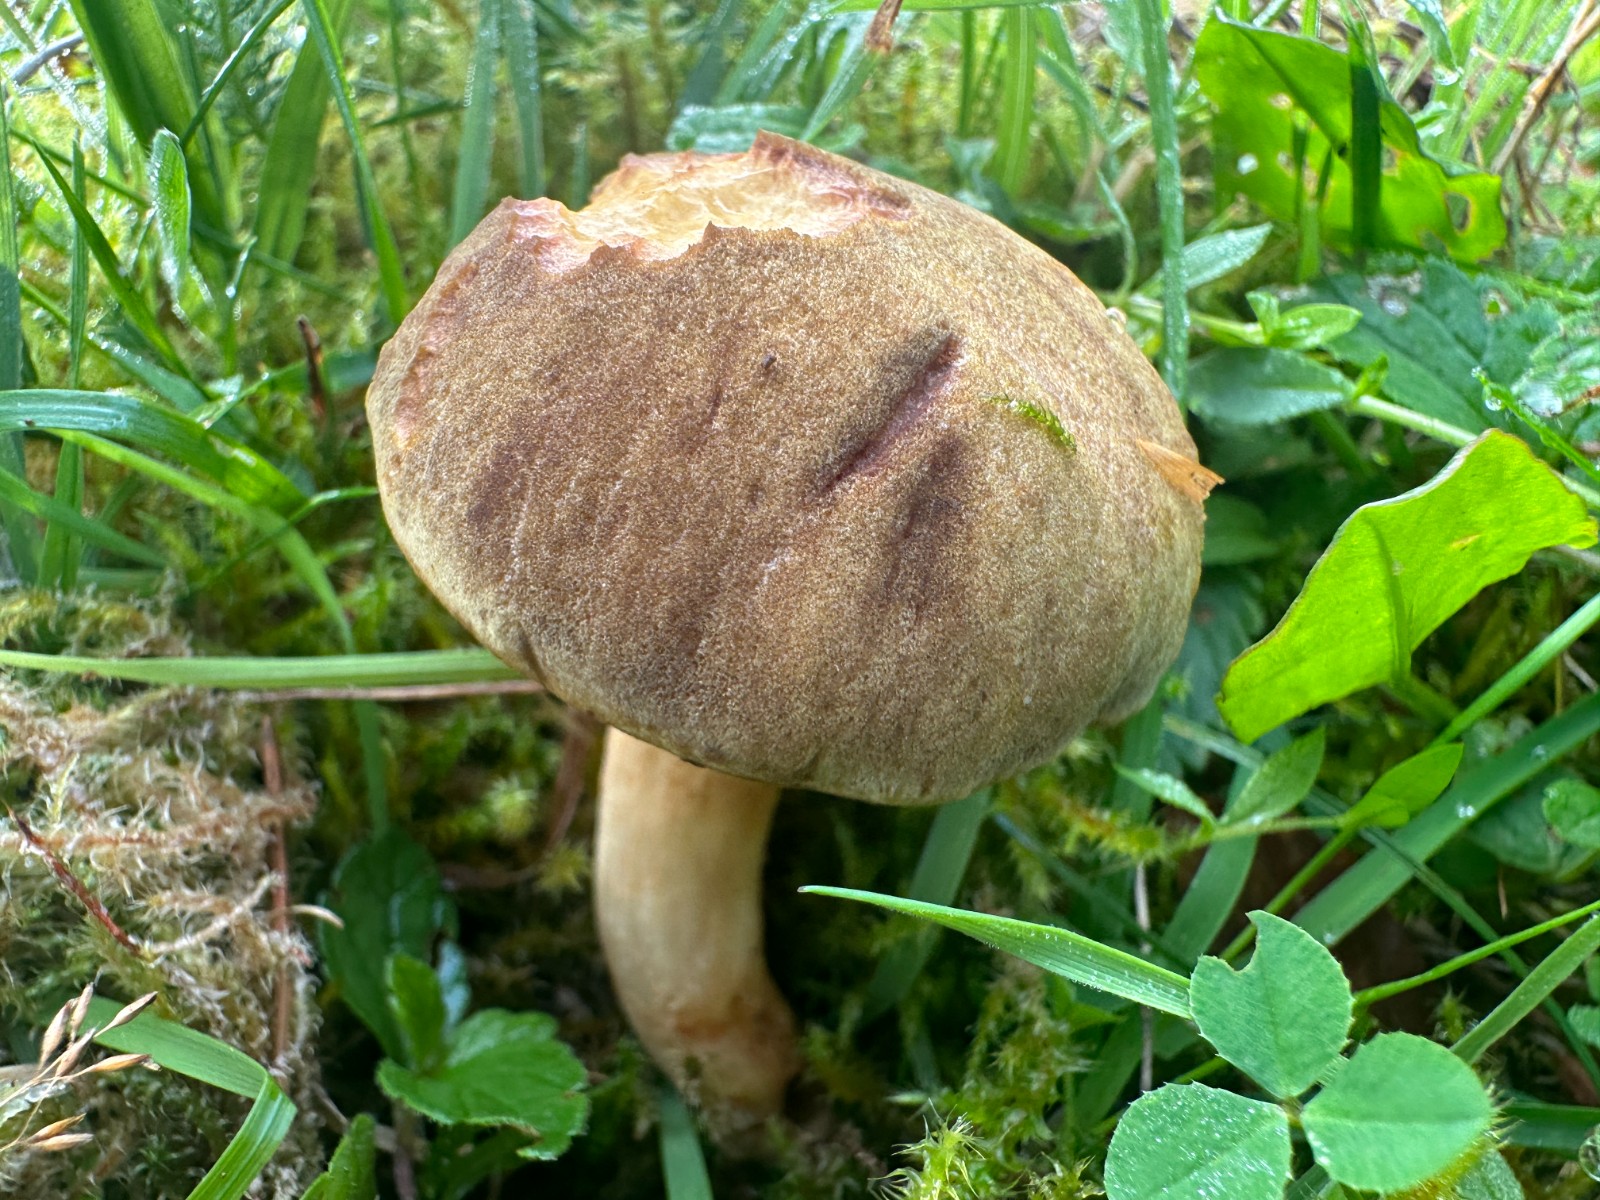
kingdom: Fungi
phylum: Basidiomycota
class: Agaricomycetes
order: Boletales
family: Boletaceae
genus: Xerocomus
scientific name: Xerocomus subtomentosus
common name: filtet rørhat
